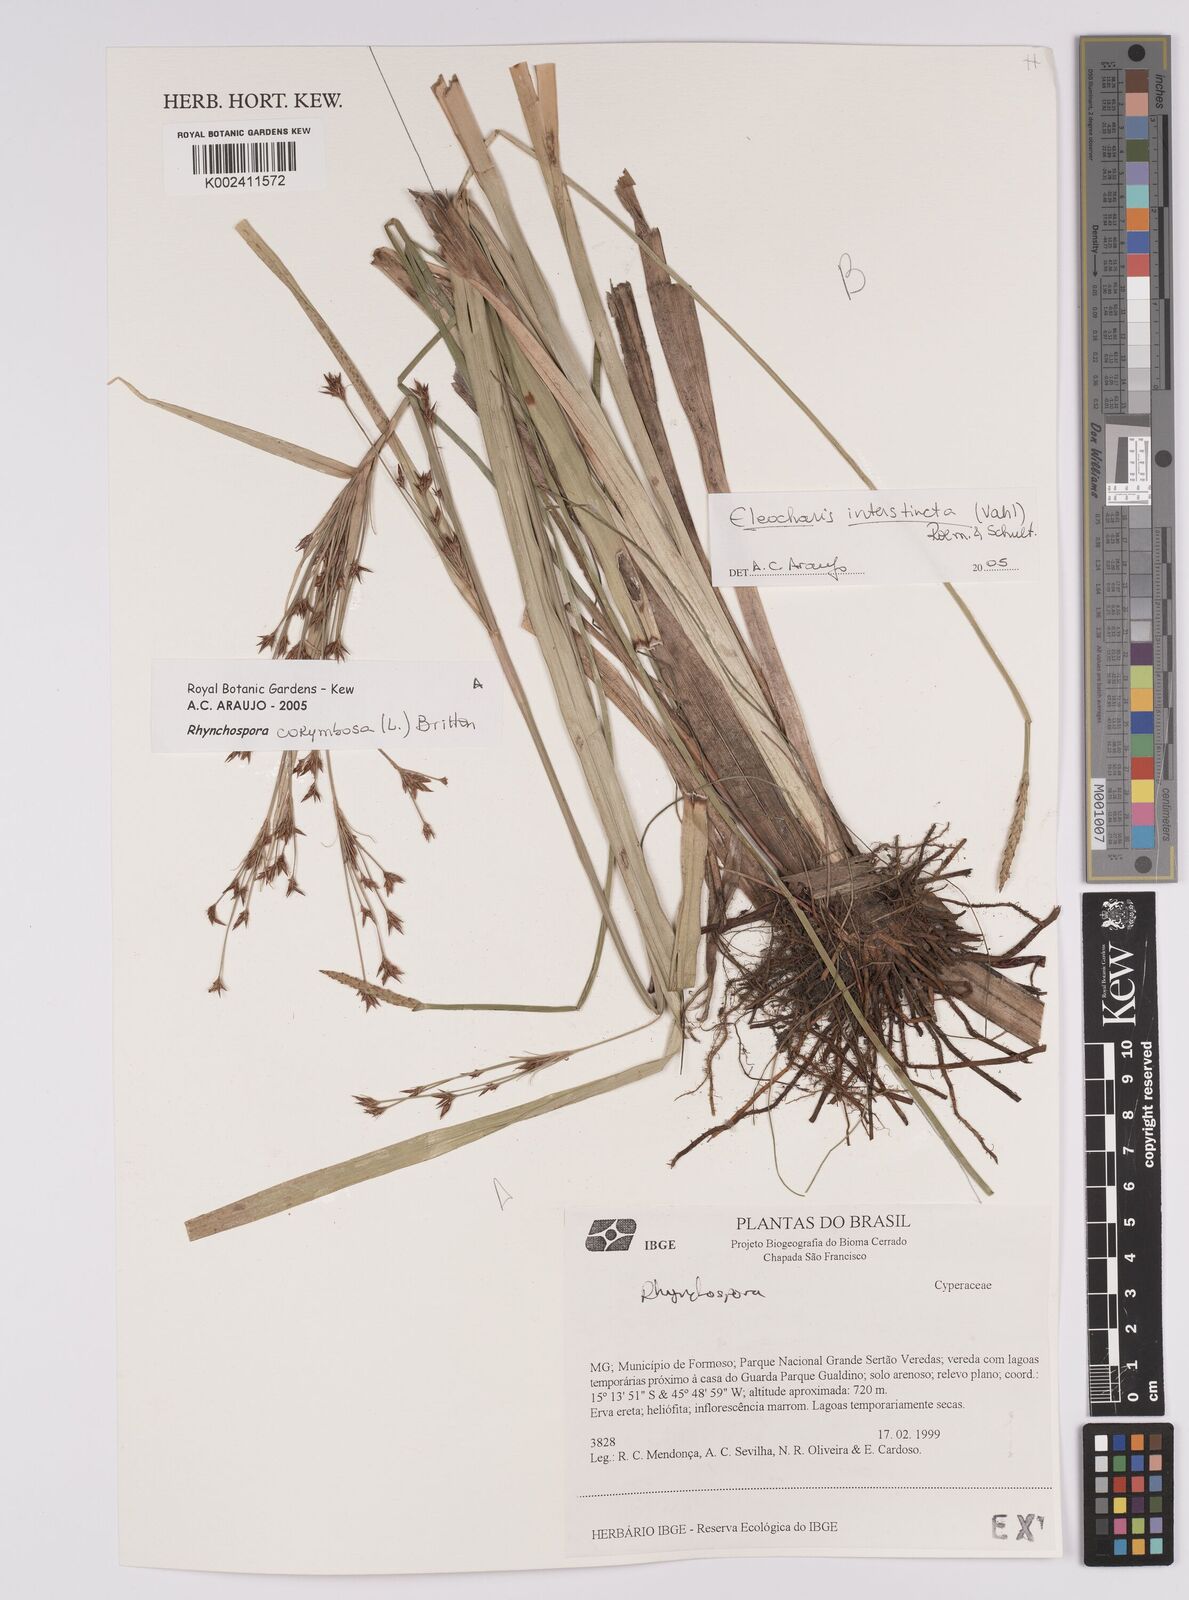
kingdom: Plantae
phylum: Tracheophyta
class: Liliopsida
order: Poales
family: Cyperaceae
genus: Rhynchospora
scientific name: Rhynchospora corymbosa
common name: Golden beak sedge
